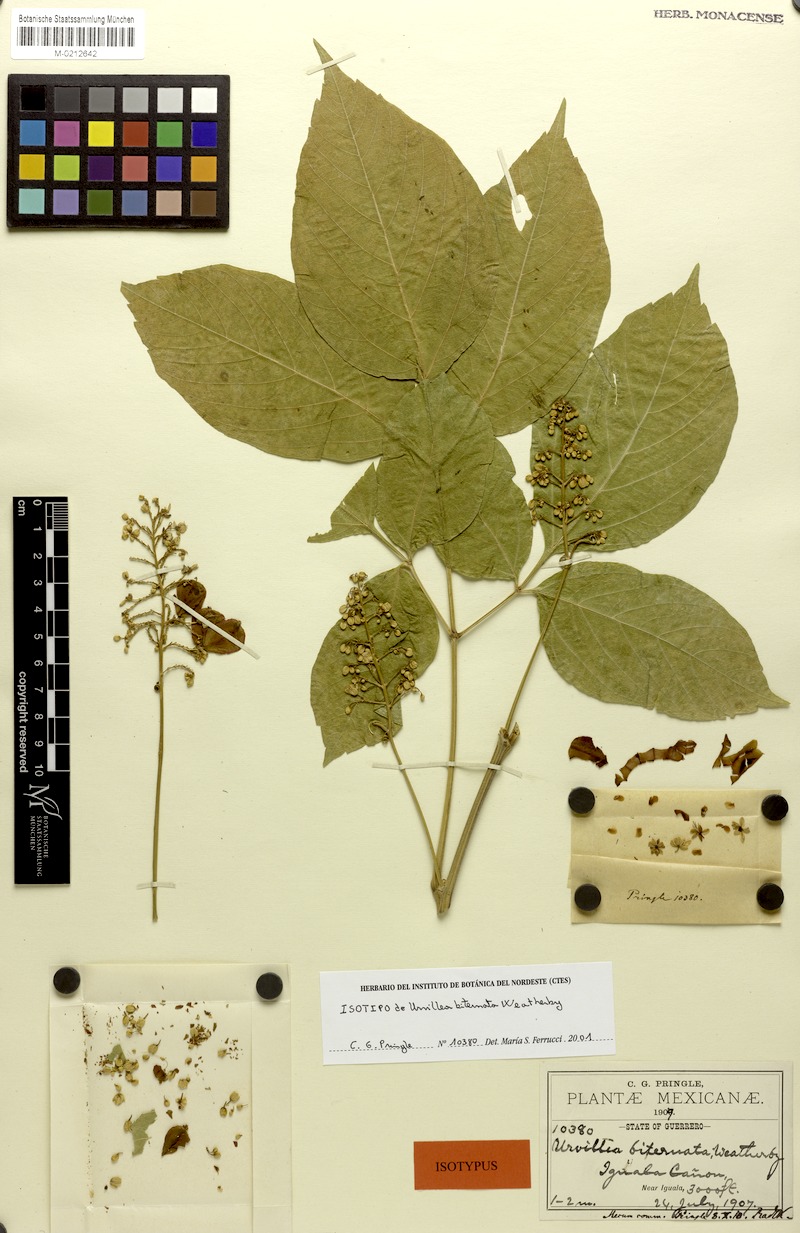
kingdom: Plantae
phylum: Tracheophyta
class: Magnoliopsida
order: Sapindales
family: Sapindaceae
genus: Serjania
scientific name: Serjania biternata
